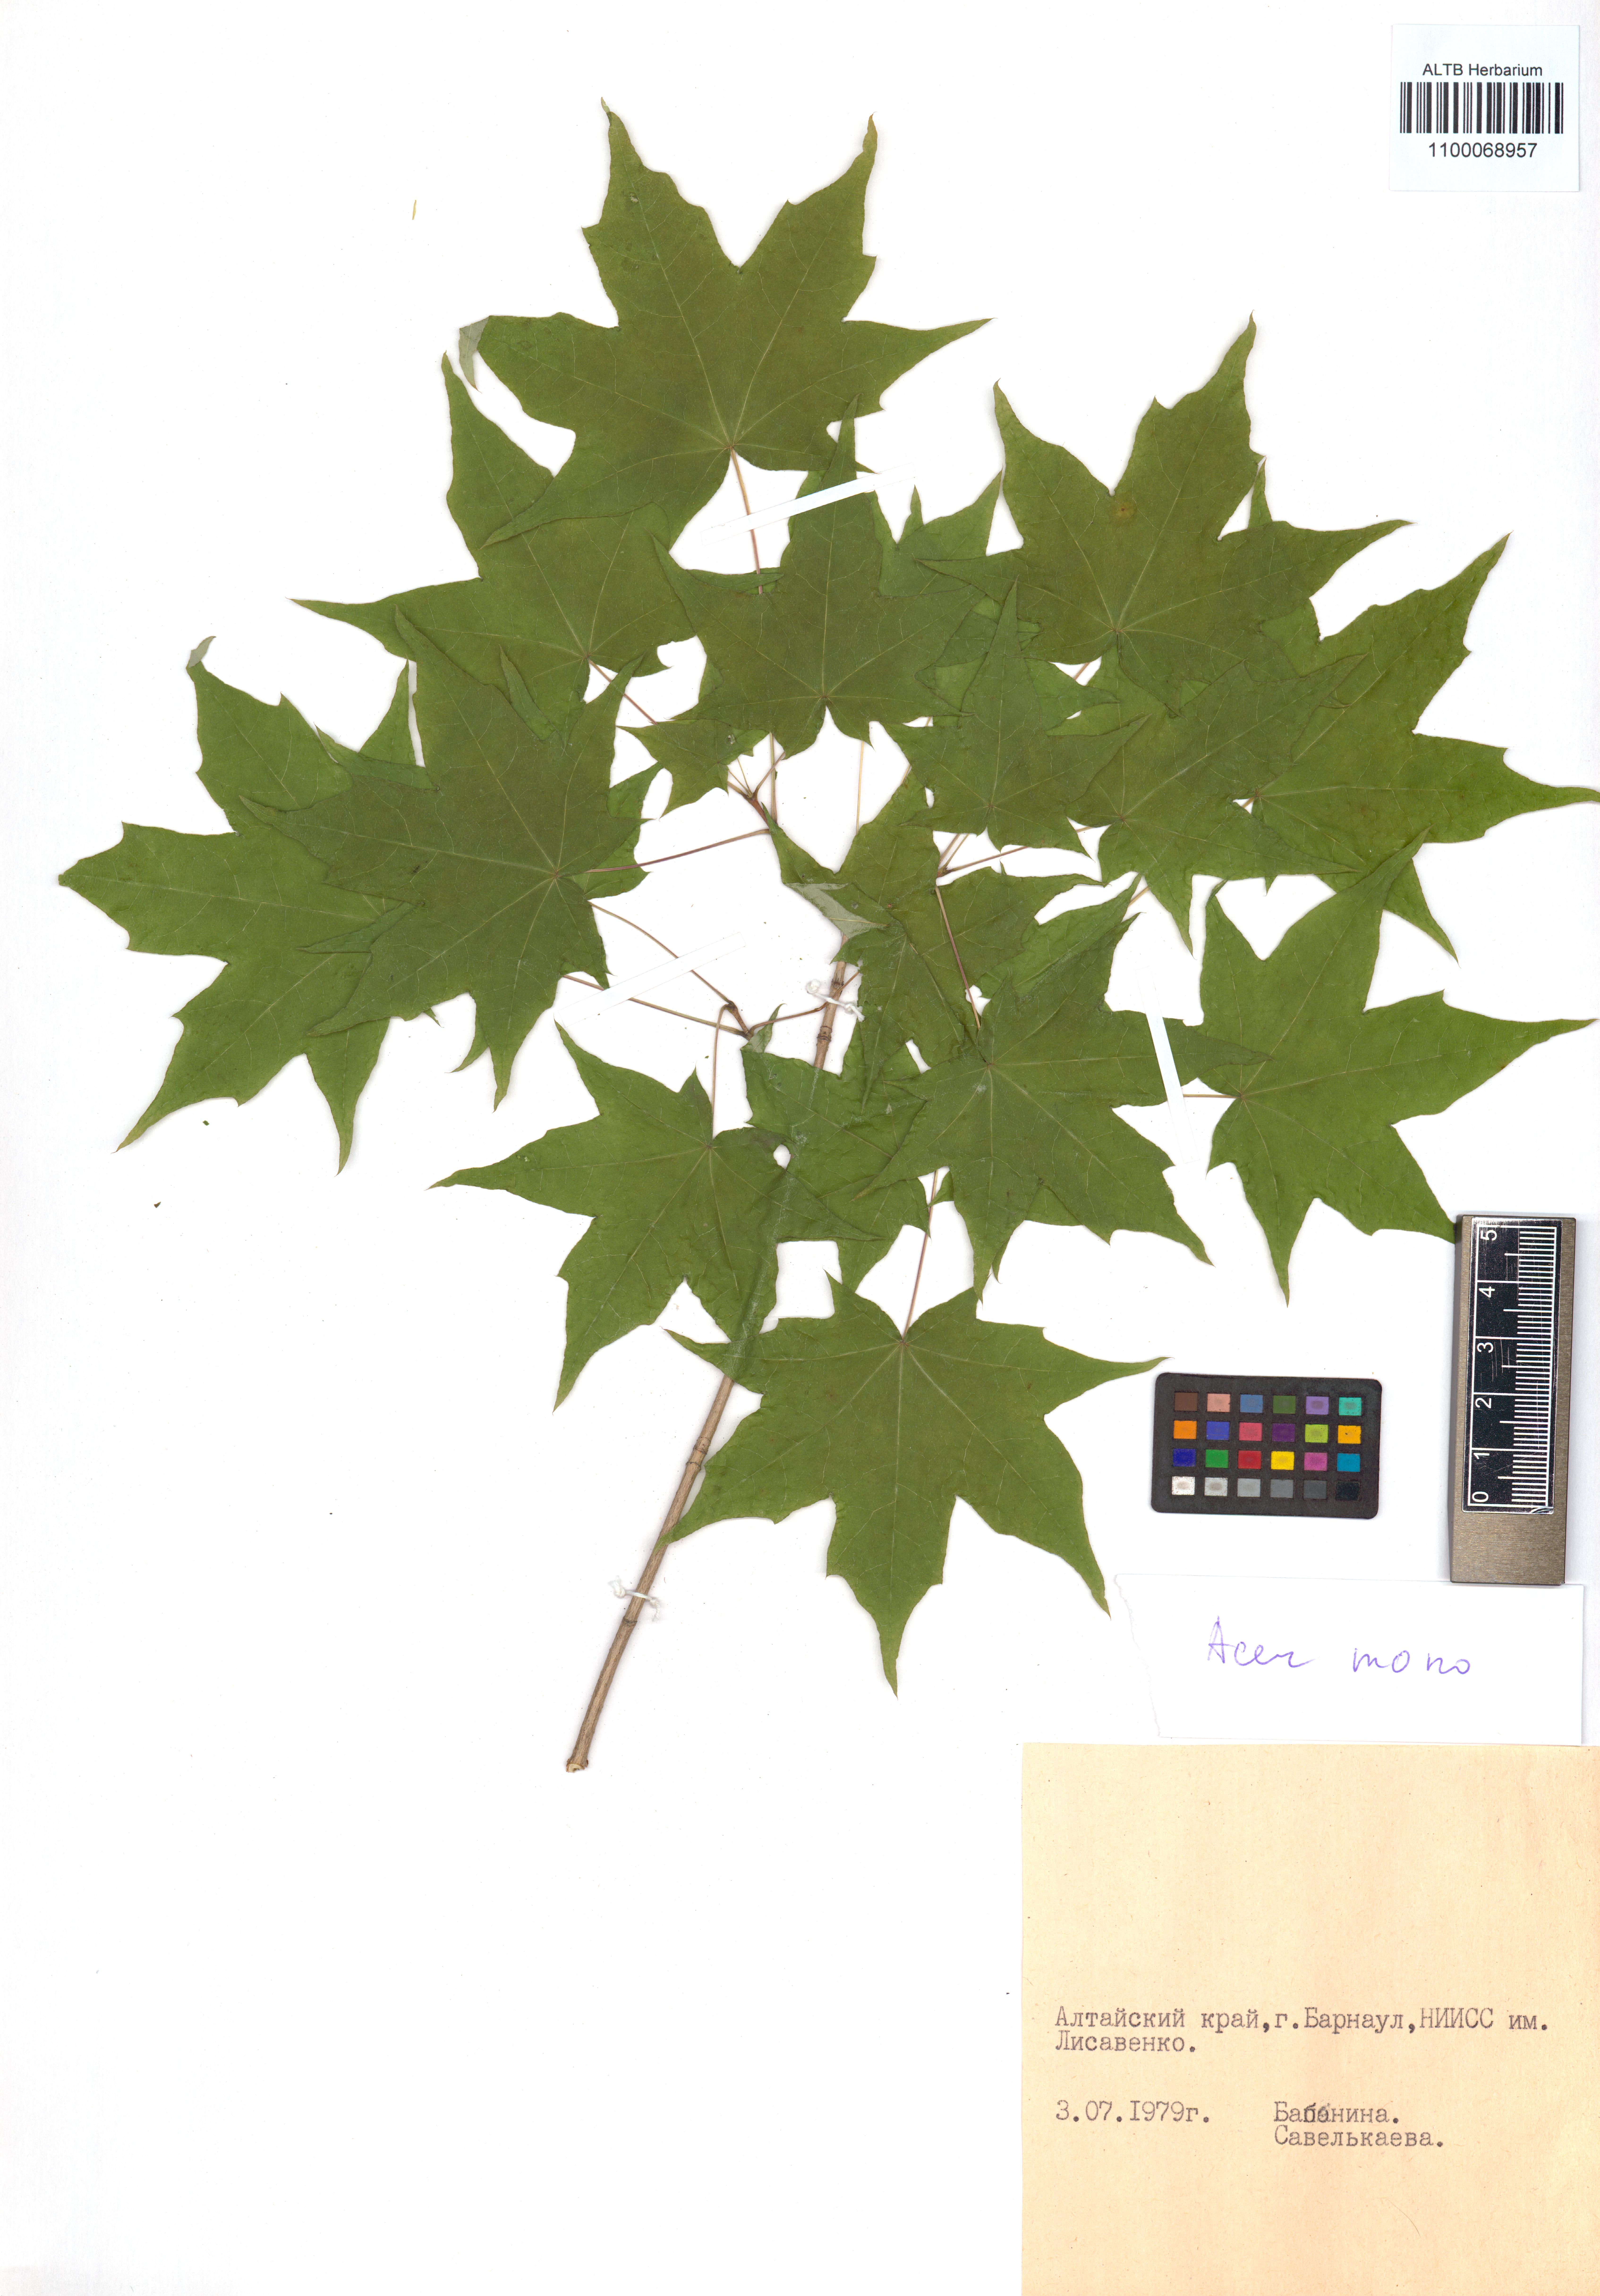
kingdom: Plantae
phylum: Tracheophyta
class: Magnoliopsida
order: Sapindales
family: Sapindaceae
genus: Acer
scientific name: Acer pictum
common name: The painted maple
